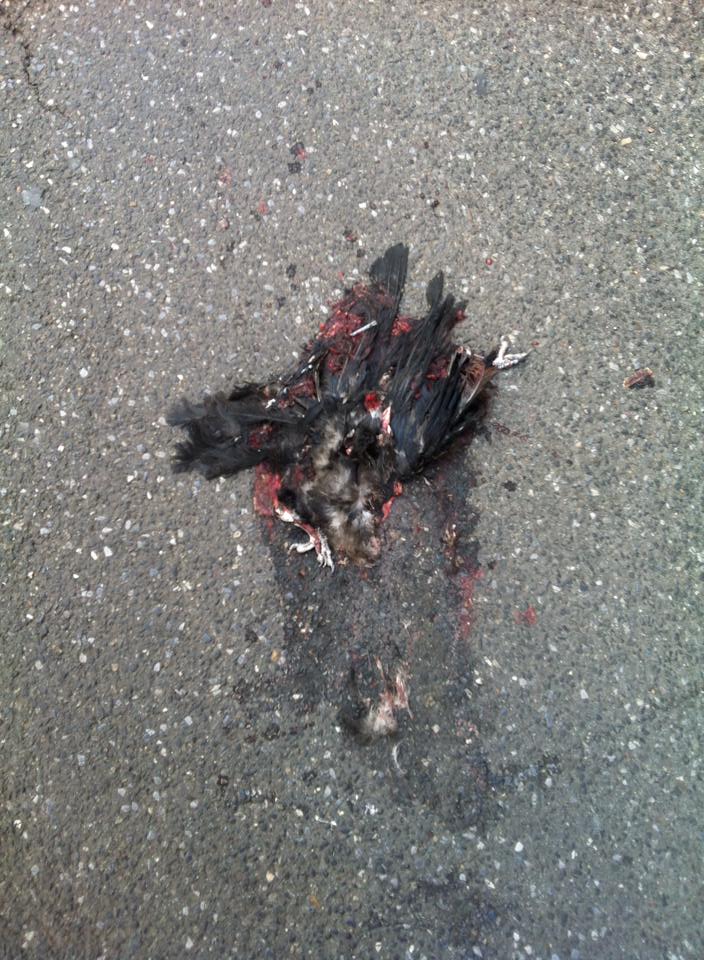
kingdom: Animalia
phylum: Chordata
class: Aves
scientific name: Aves
